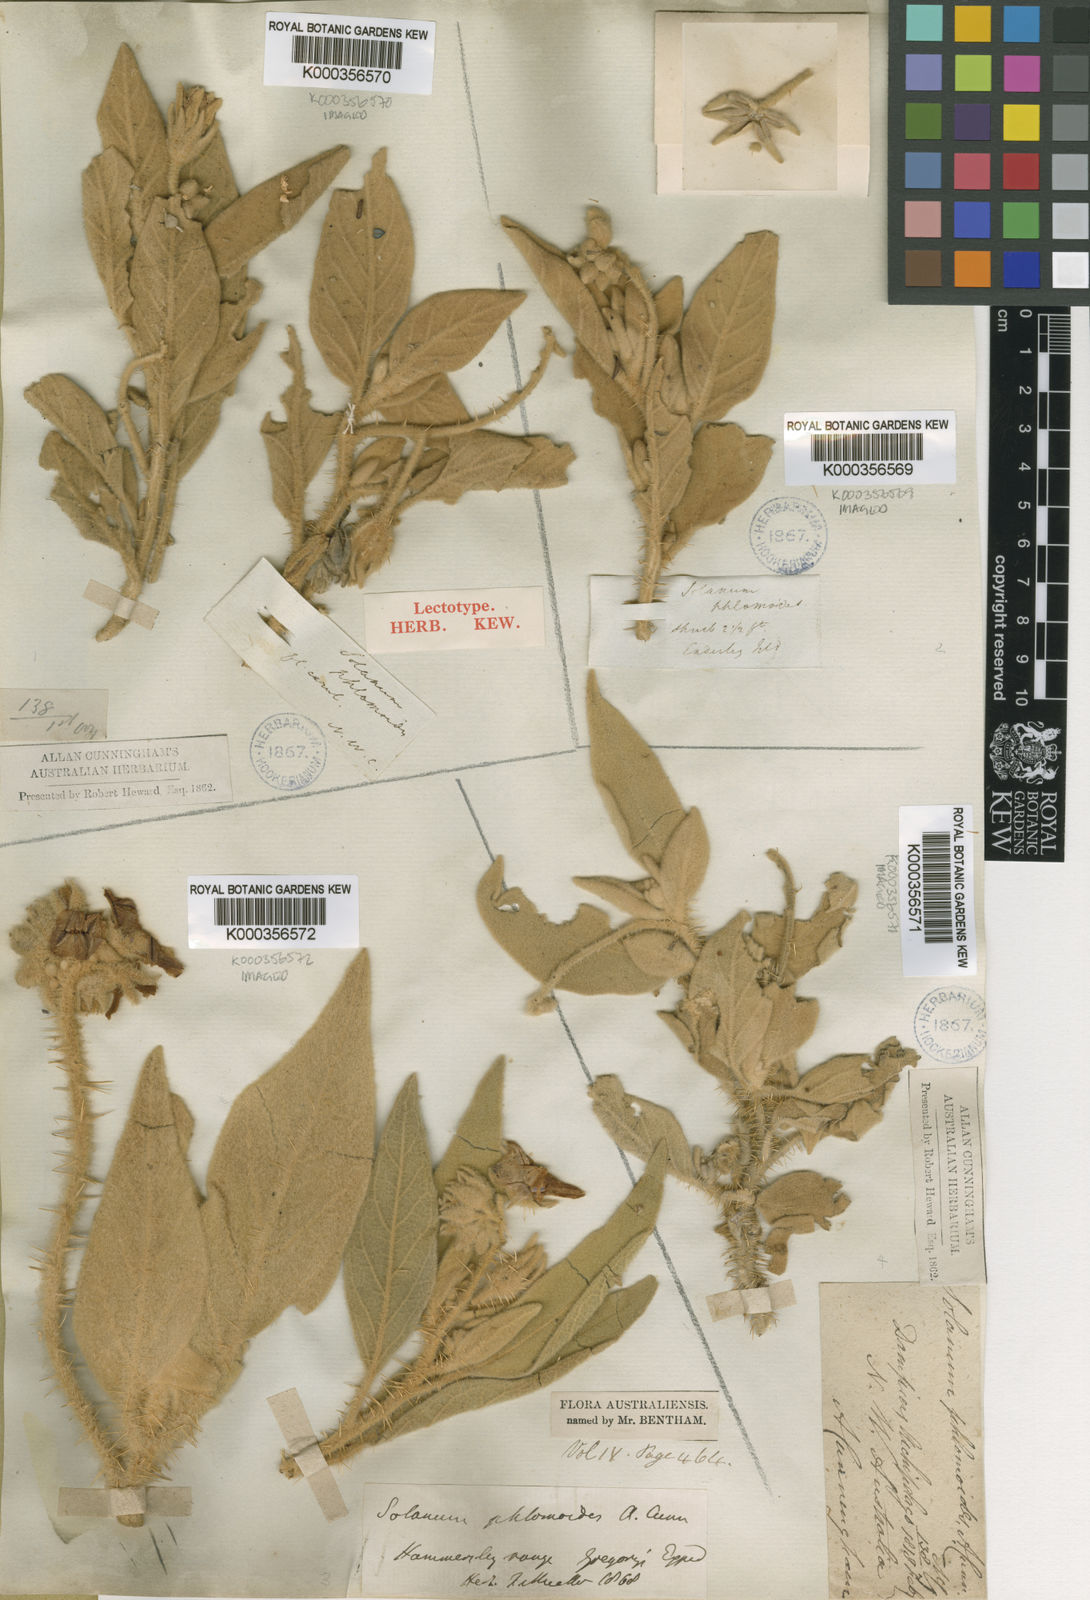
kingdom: Plantae
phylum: Tracheophyta
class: Magnoliopsida
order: Solanales
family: Solanaceae
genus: Solanum
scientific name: Solanum phlomoides
